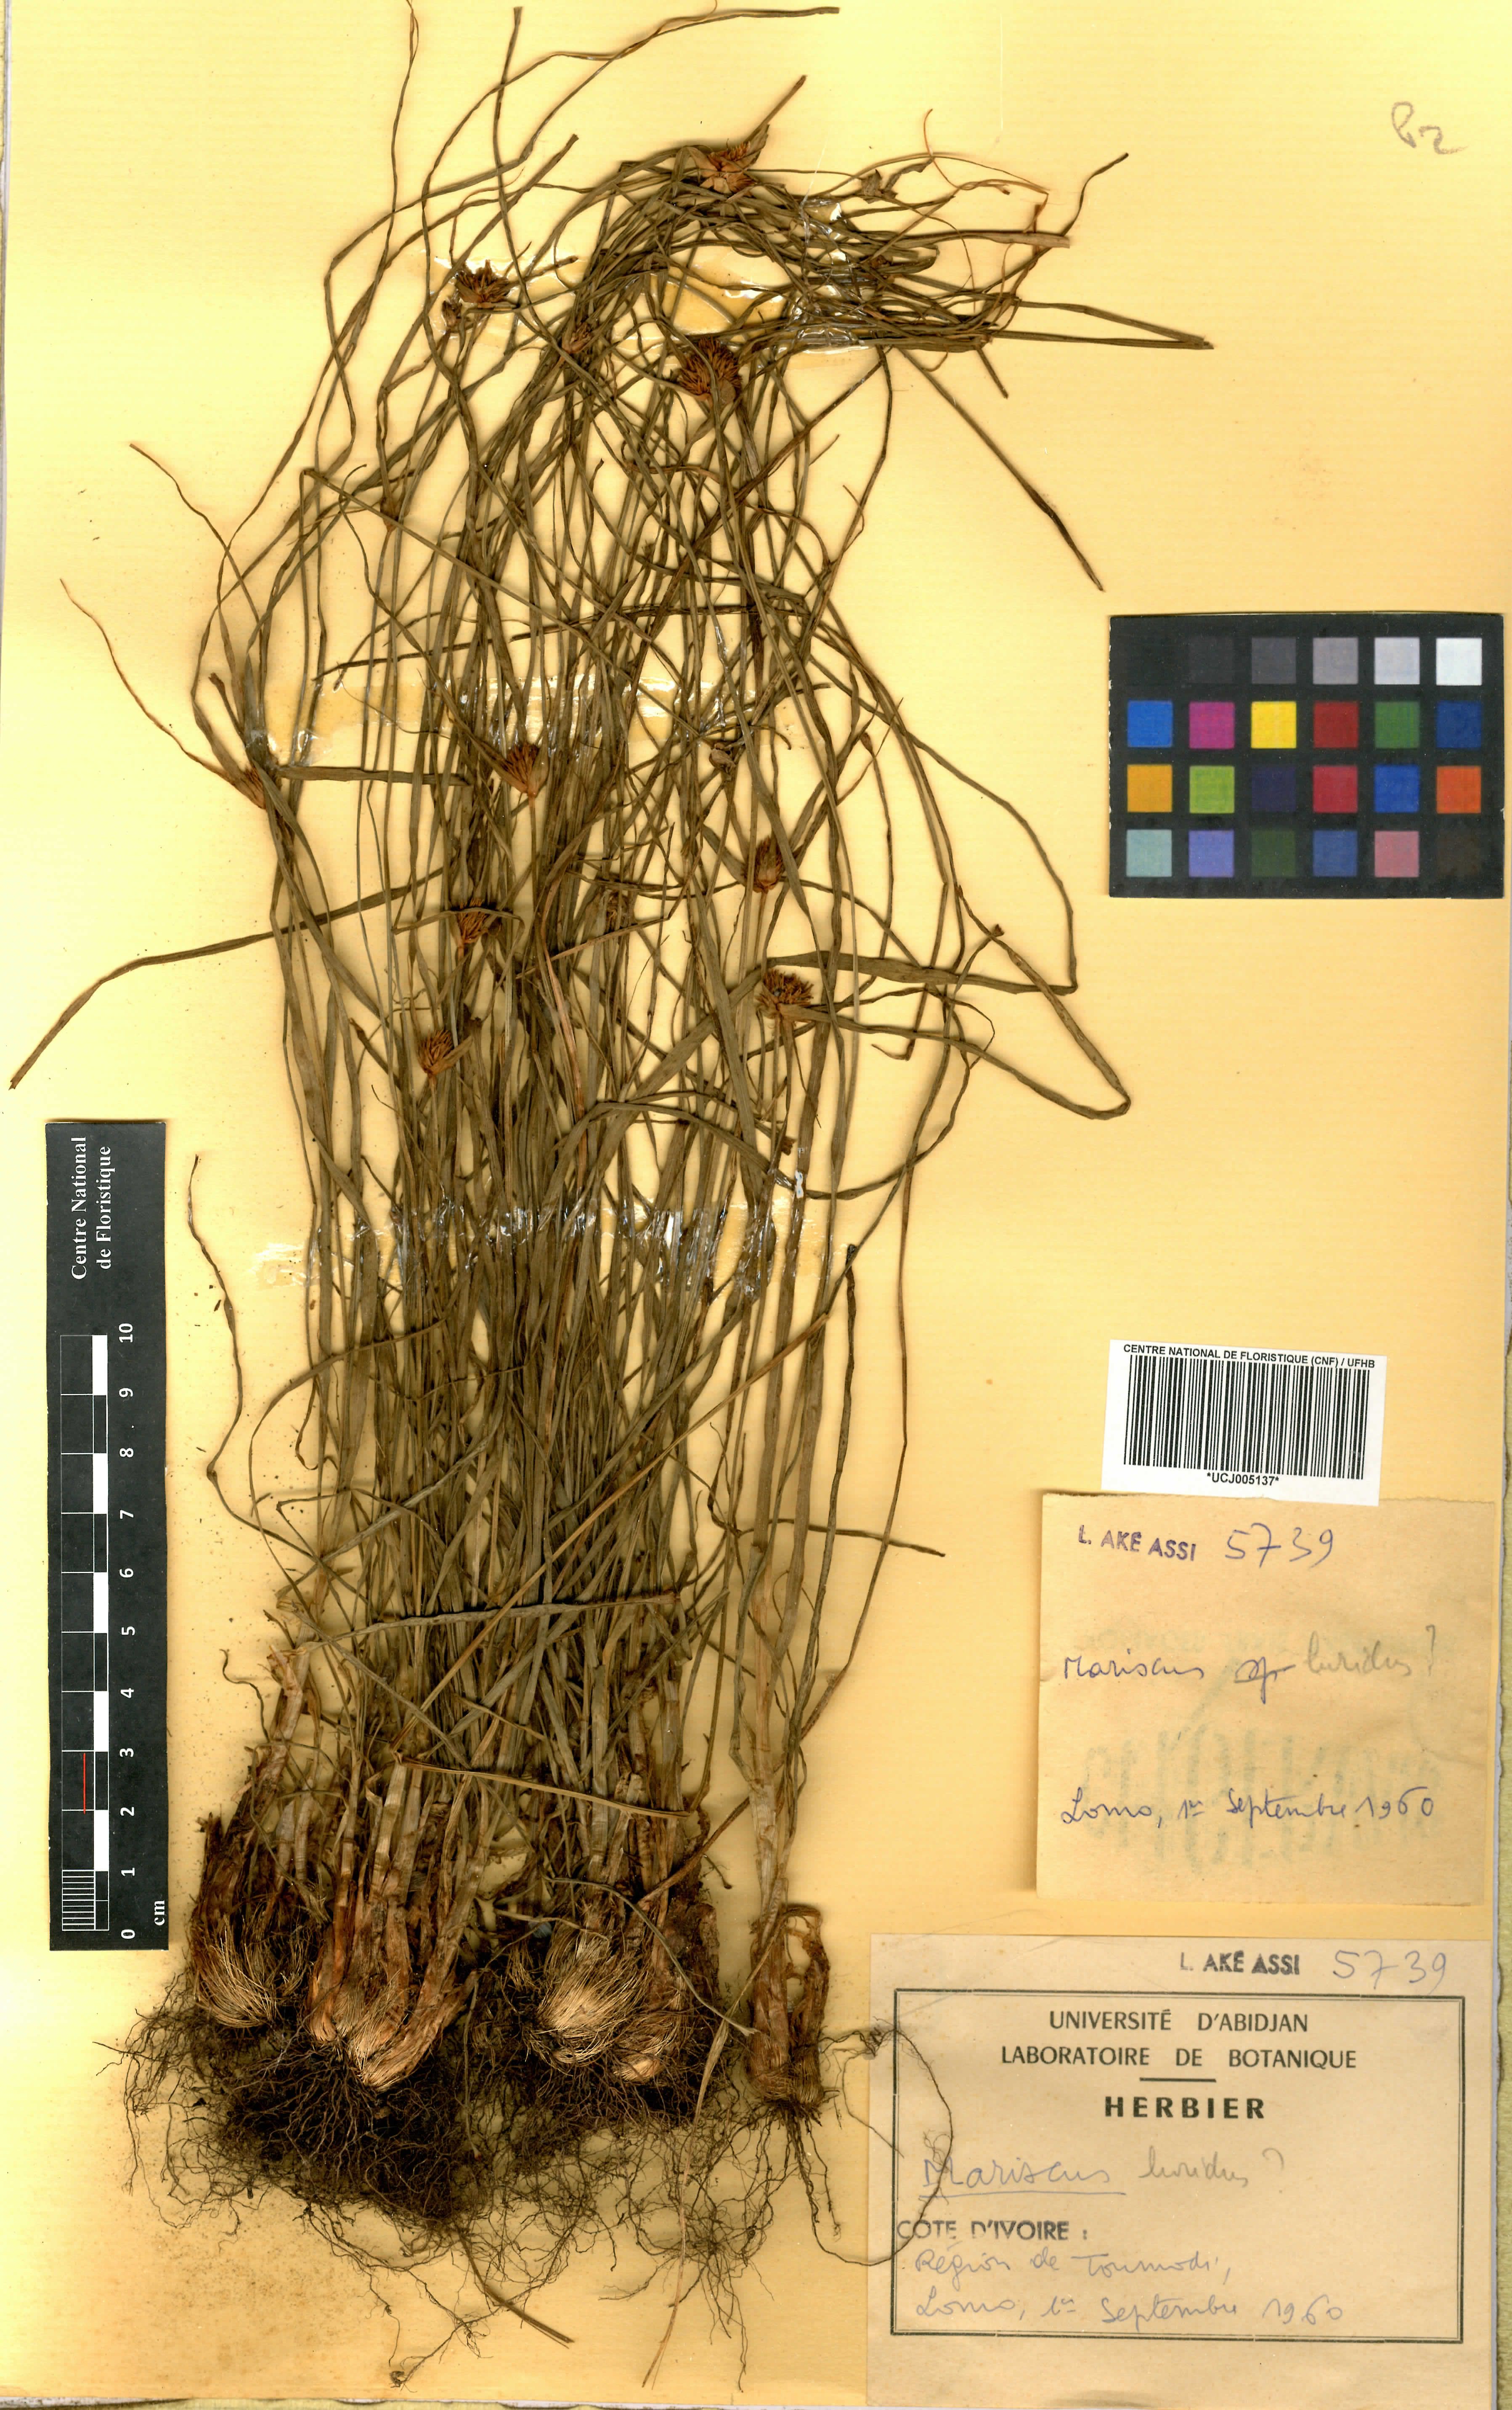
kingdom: Plantae
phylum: Tracheophyta
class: Liliopsida
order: Poales
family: Cyperaceae
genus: Cyperus
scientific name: Cyperus tenuis
